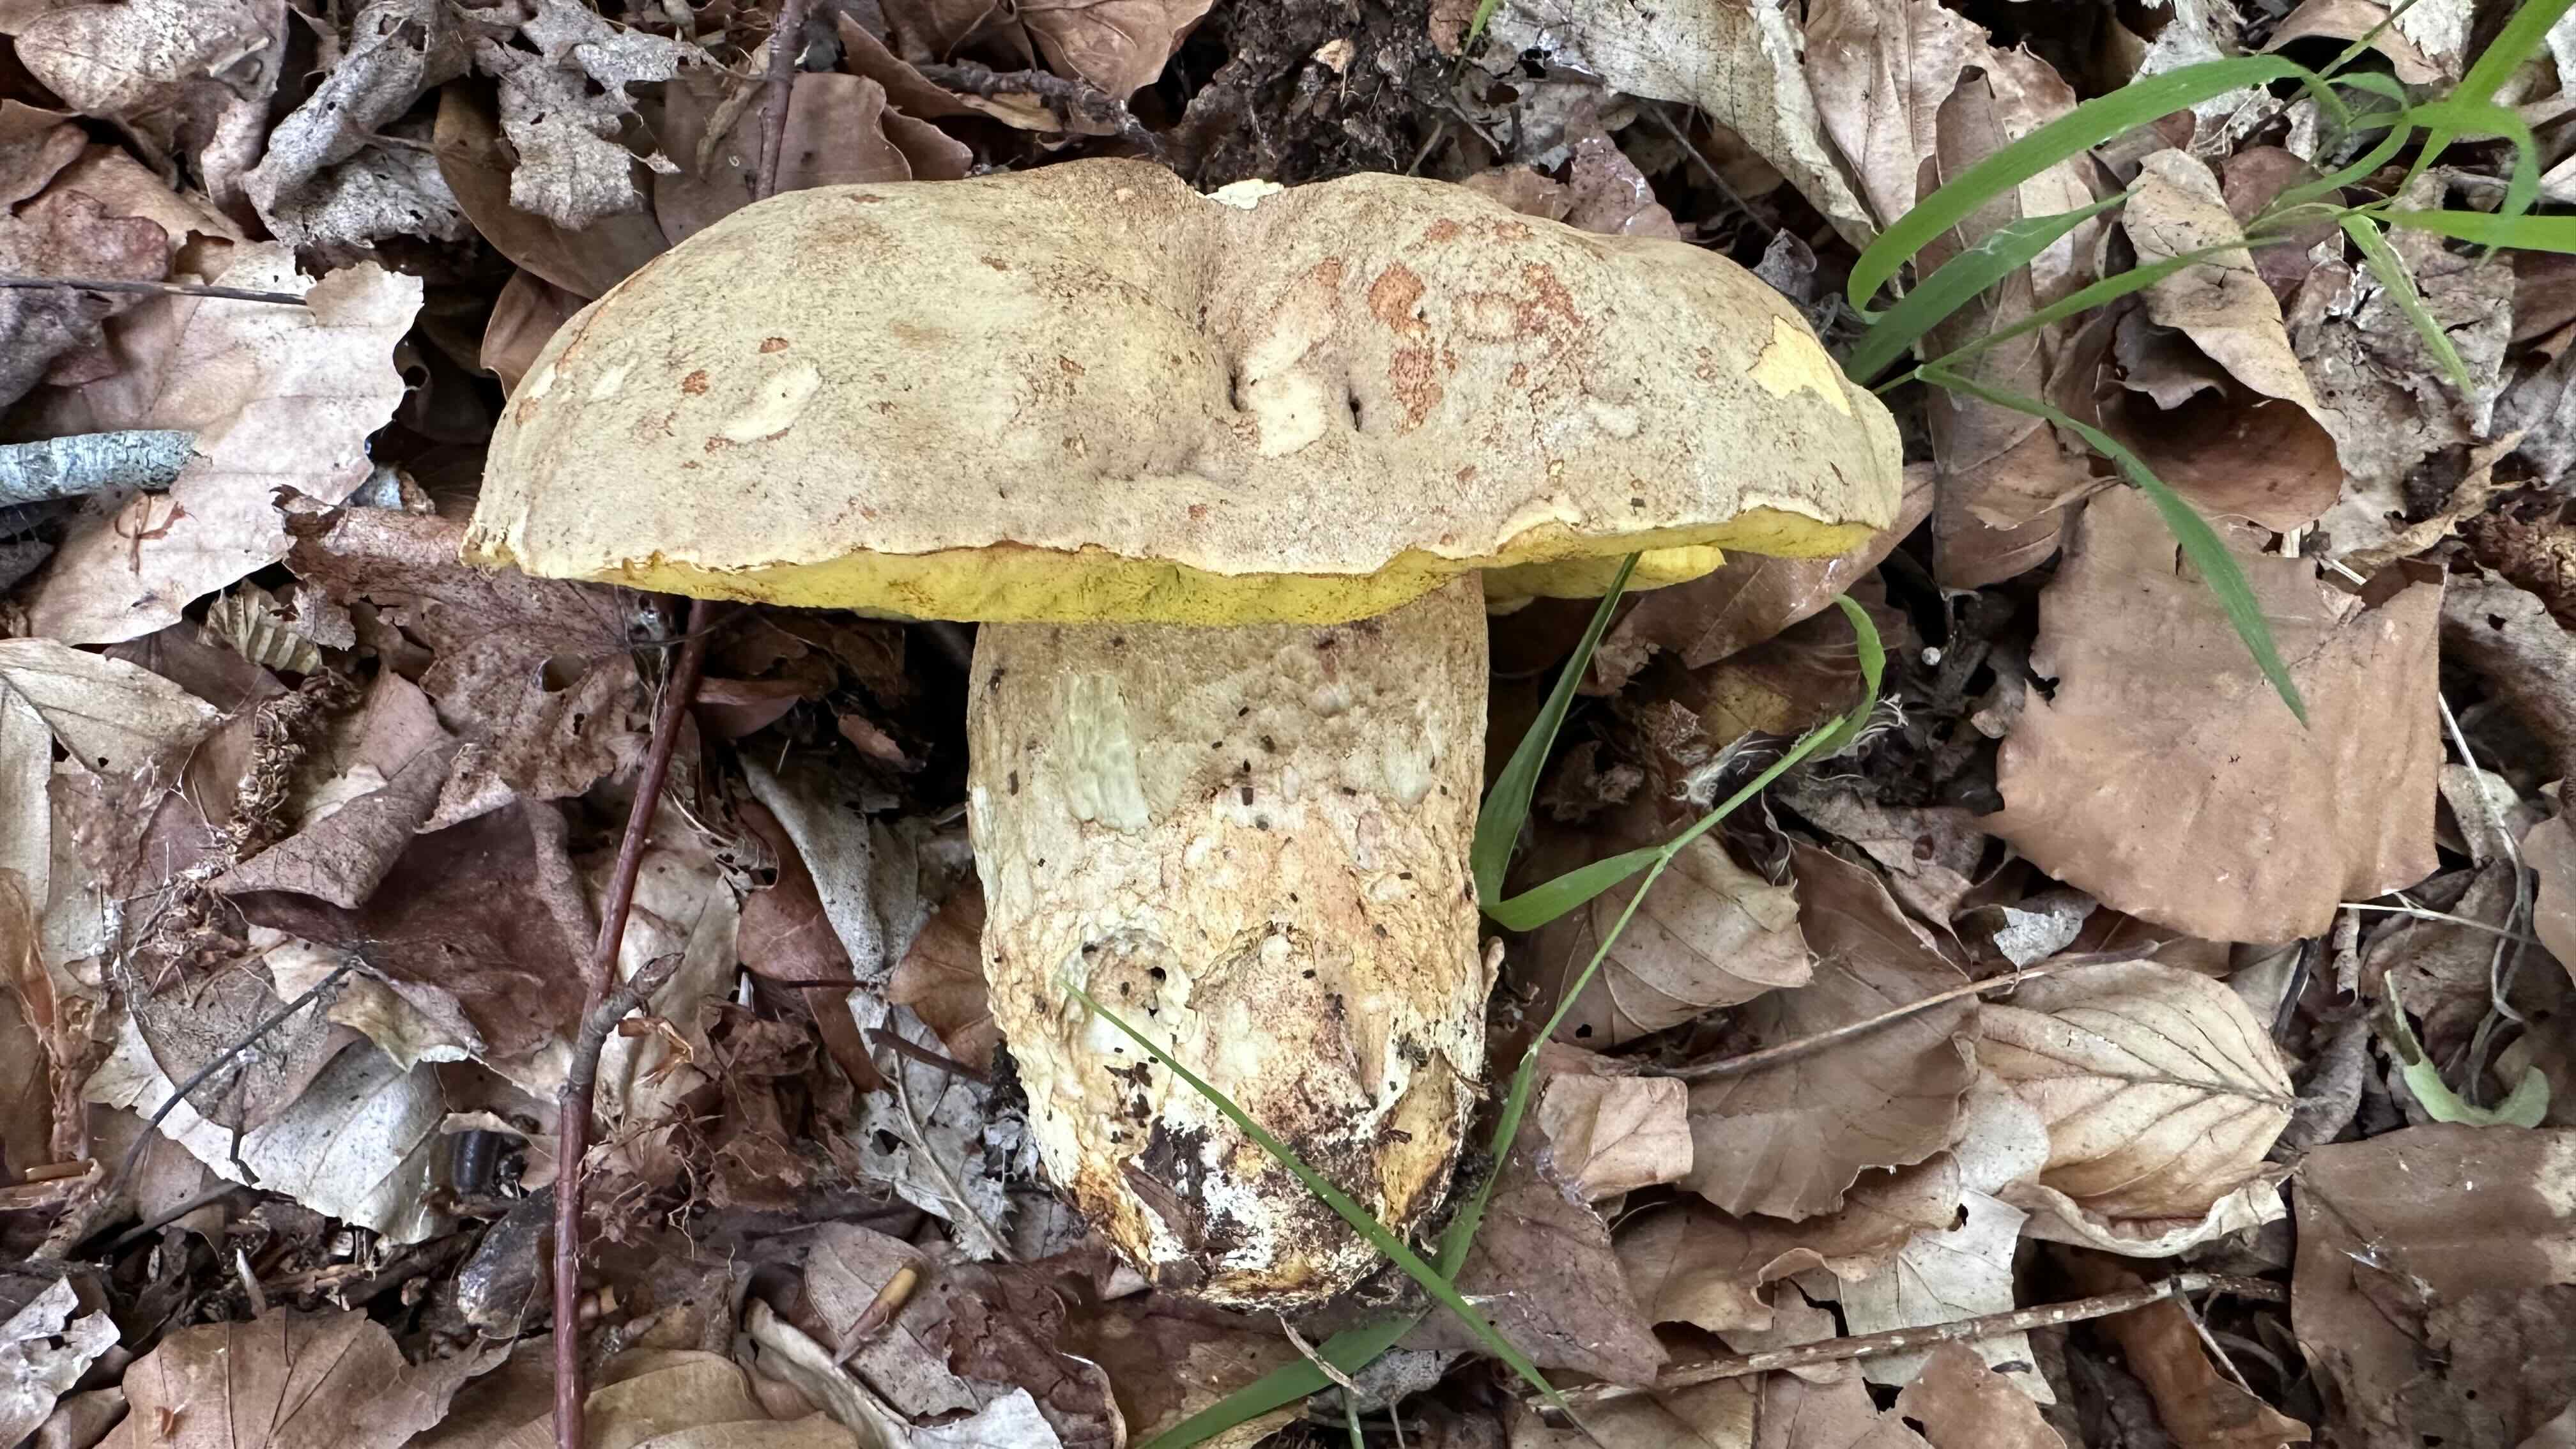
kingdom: Fungi
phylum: Basidiomycota
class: Agaricomycetes
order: Boletales
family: Boletaceae
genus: Hemileccinum
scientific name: Hemileccinum impolitum
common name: bleg rørhat
